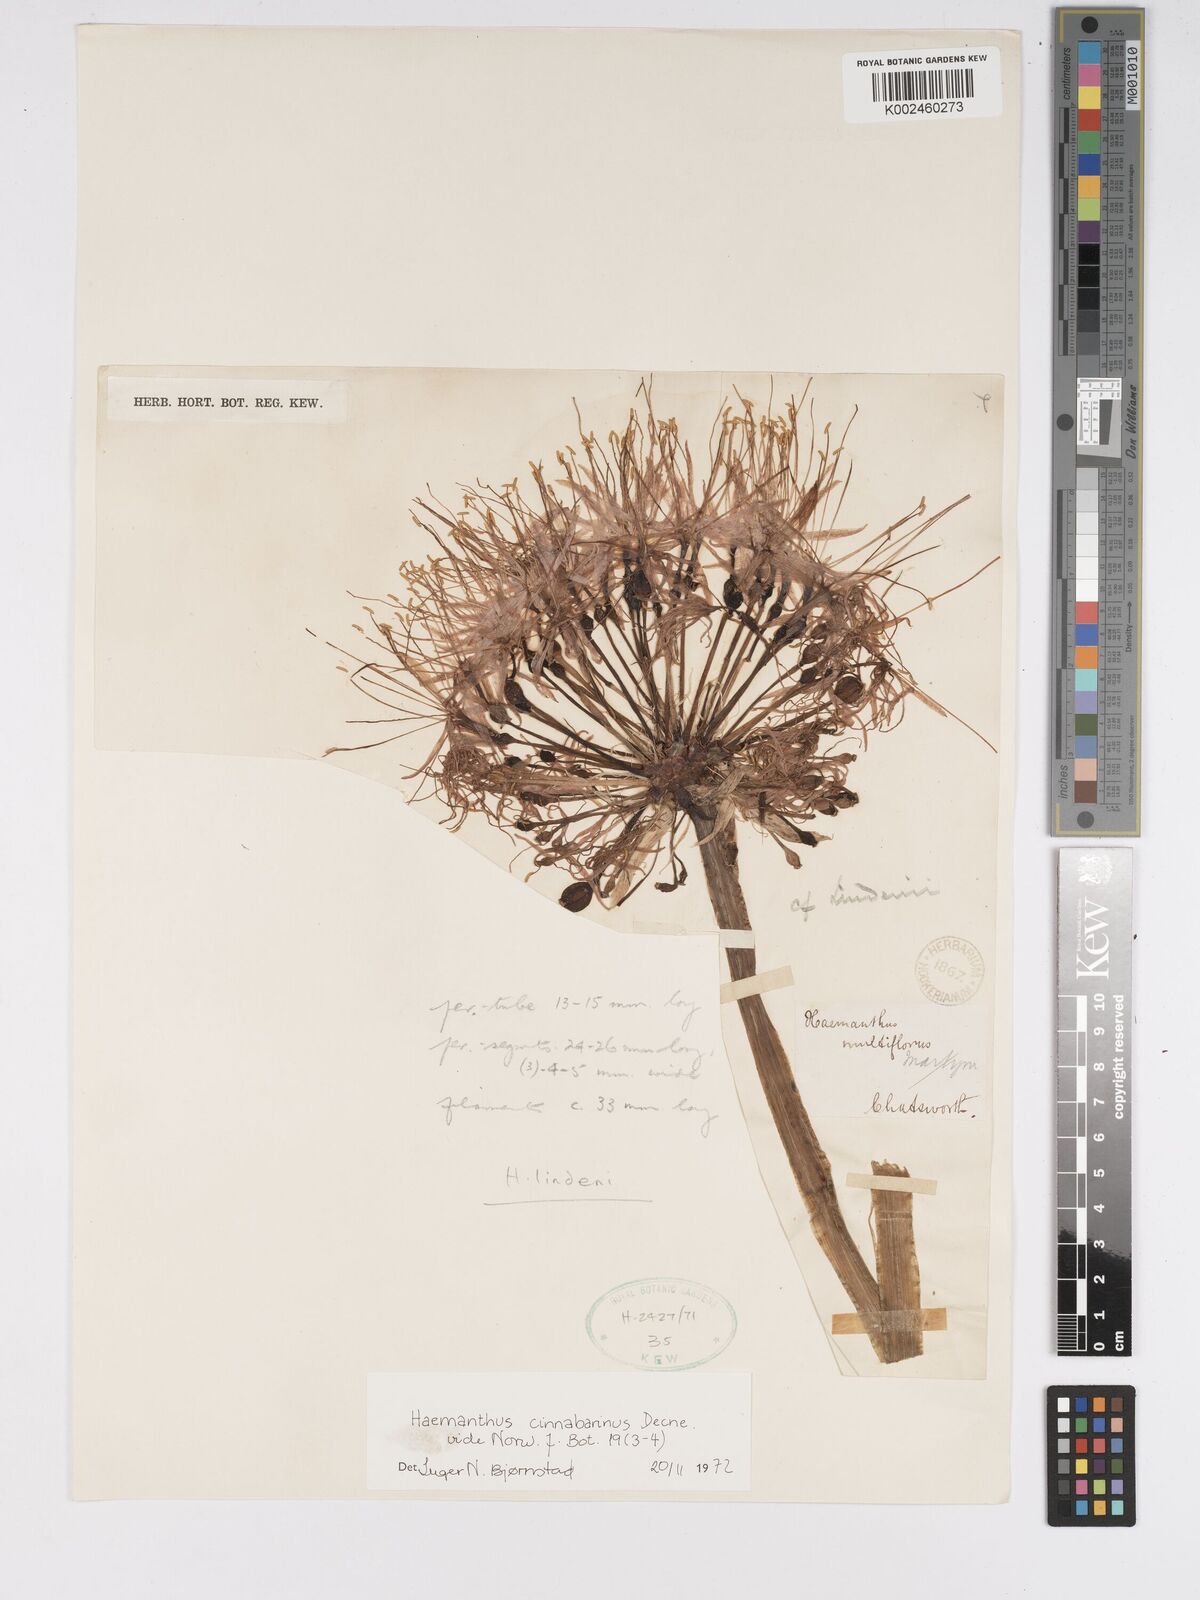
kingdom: Plantae
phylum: Tracheophyta
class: Liliopsida
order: Asparagales
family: Amaryllidaceae
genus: Scadoxus
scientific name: Scadoxus cinnabarinus
